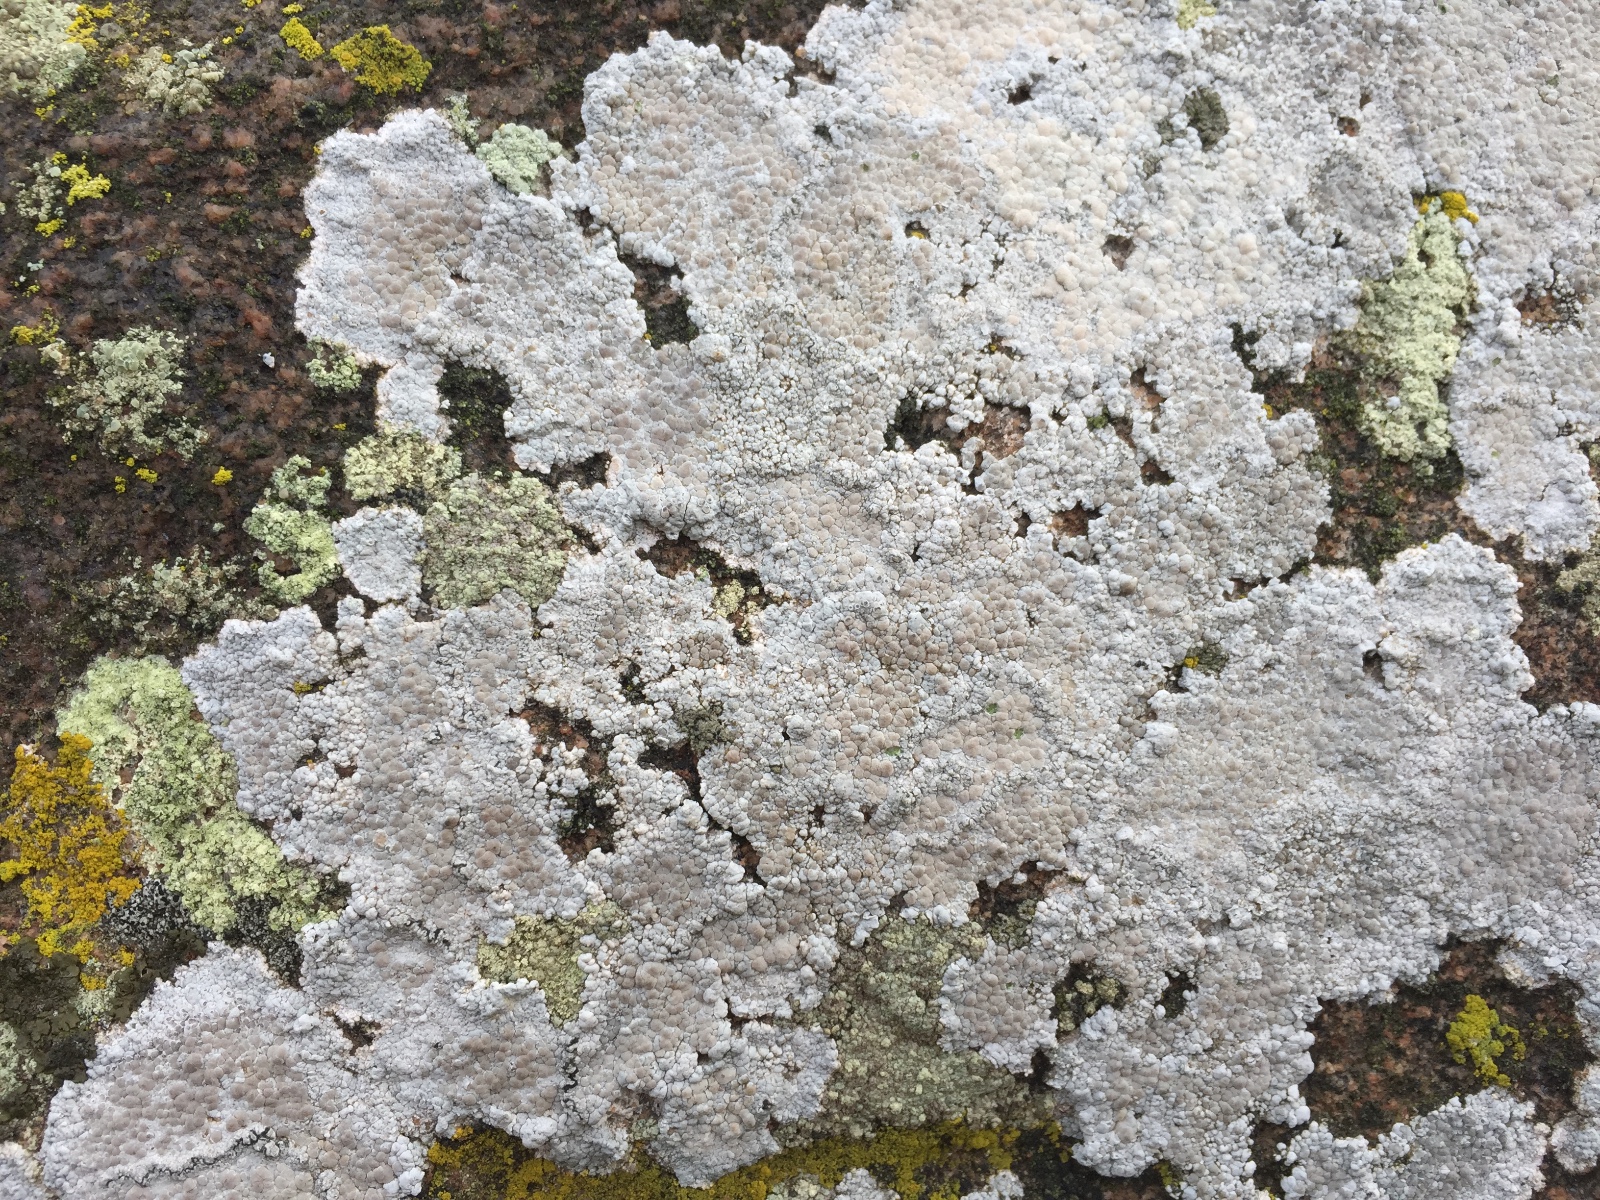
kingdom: Fungi
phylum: Ascomycota
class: Lecanoromycetes
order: Lecanorales
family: Lecanoraceae
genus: Glaucomaria
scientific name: Glaucomaria rupicola
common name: stengærde-kantskivelav
